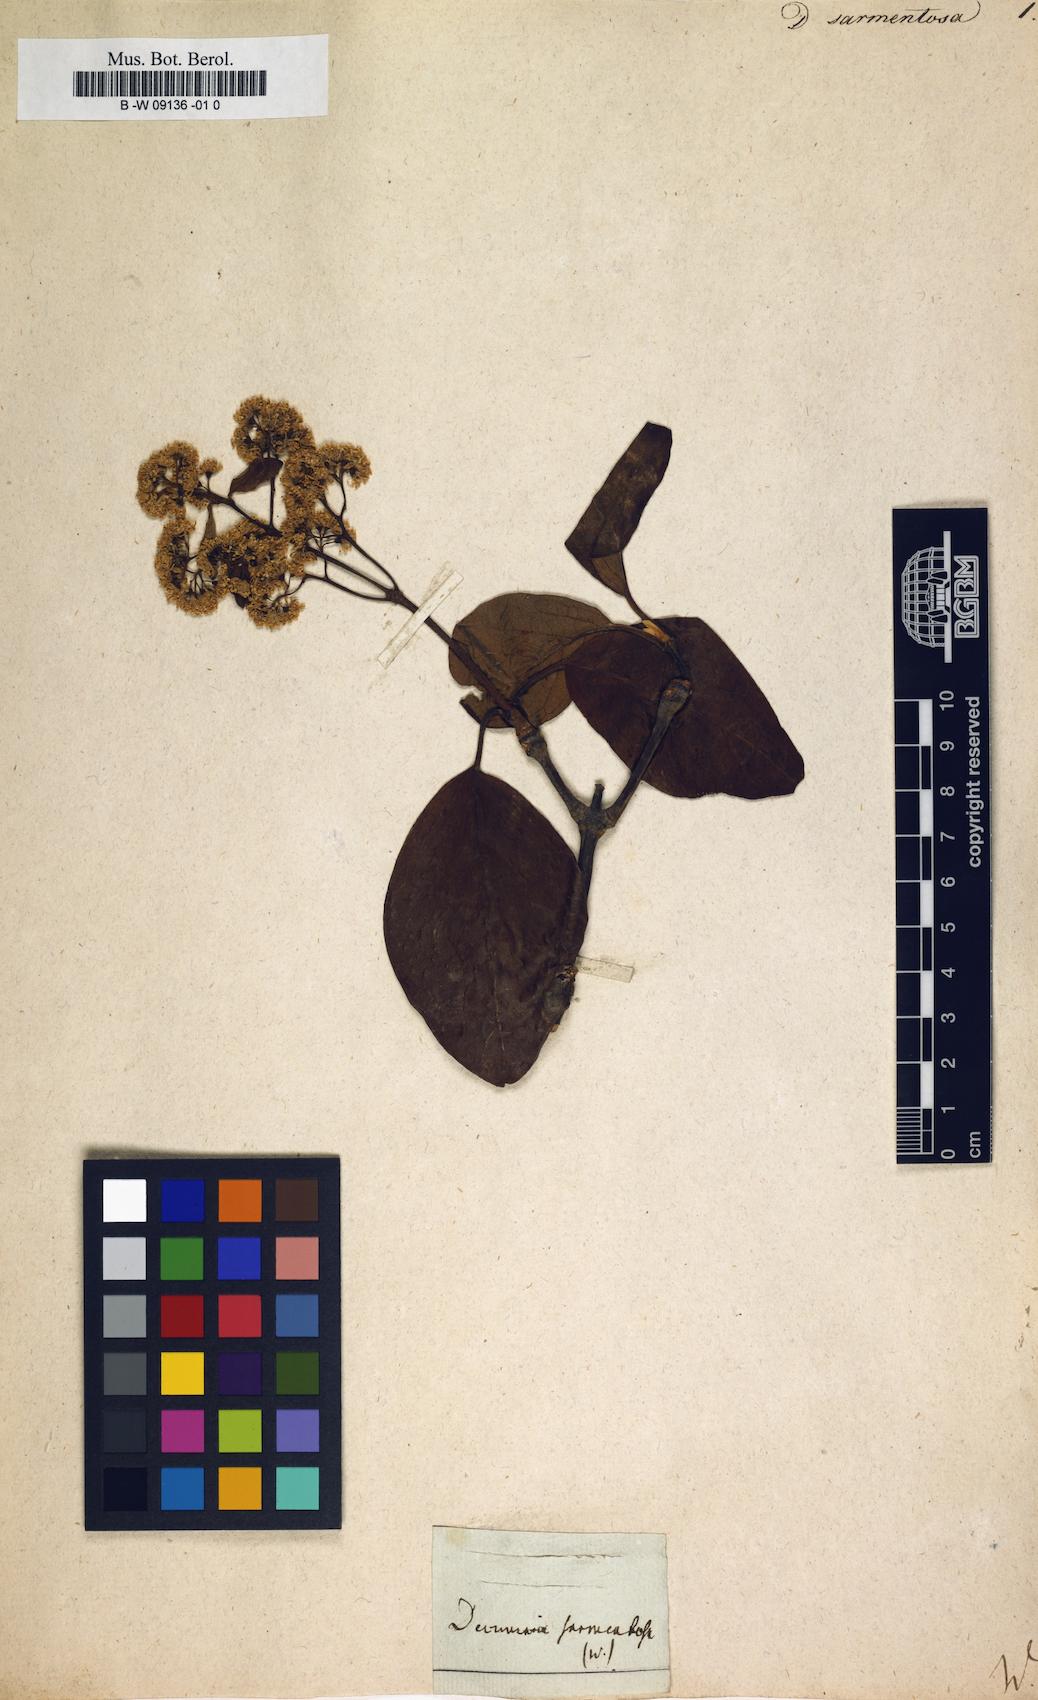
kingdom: Plantae
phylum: Tracheophyta
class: Magnoliopsida
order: Cornales
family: Hydrangeaceae
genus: Hydrangea
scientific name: Hydrangea barbara
